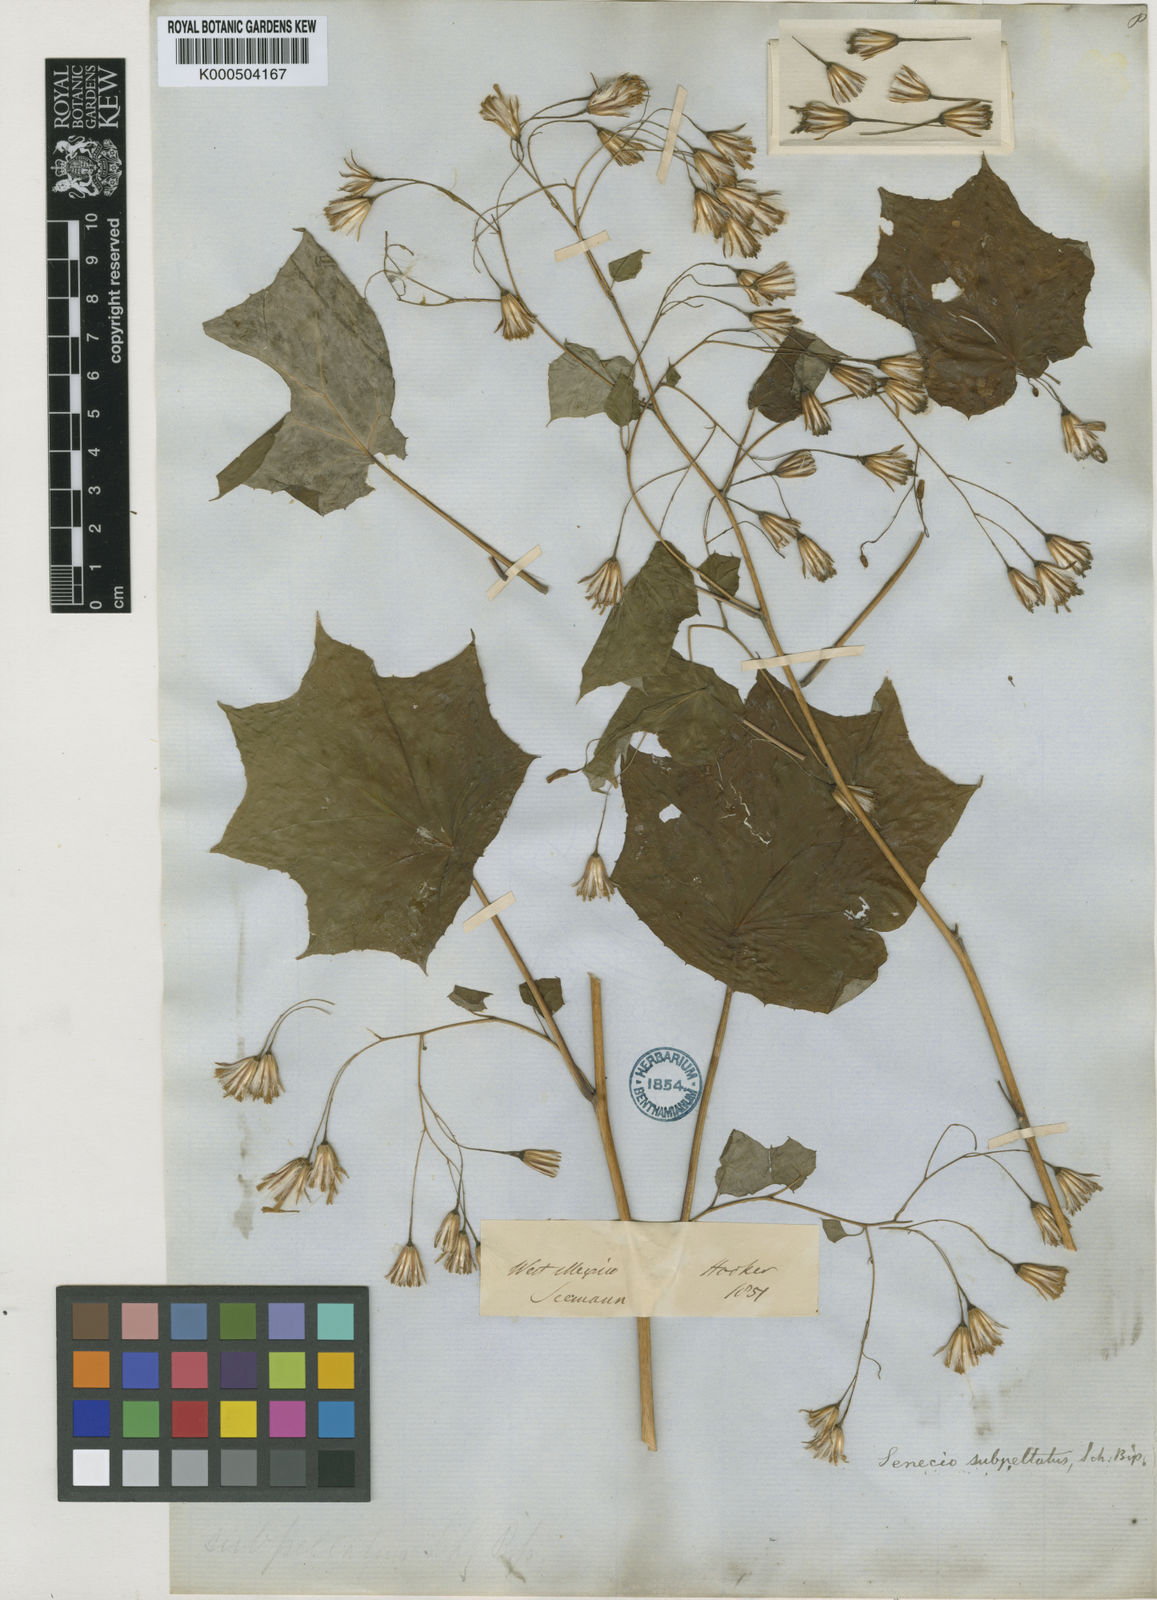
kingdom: Plantae
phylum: Tracheophyta
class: Magnoliopsida
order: Asterales
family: Asteraceae
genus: Roldana
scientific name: Roldana subpeltata
